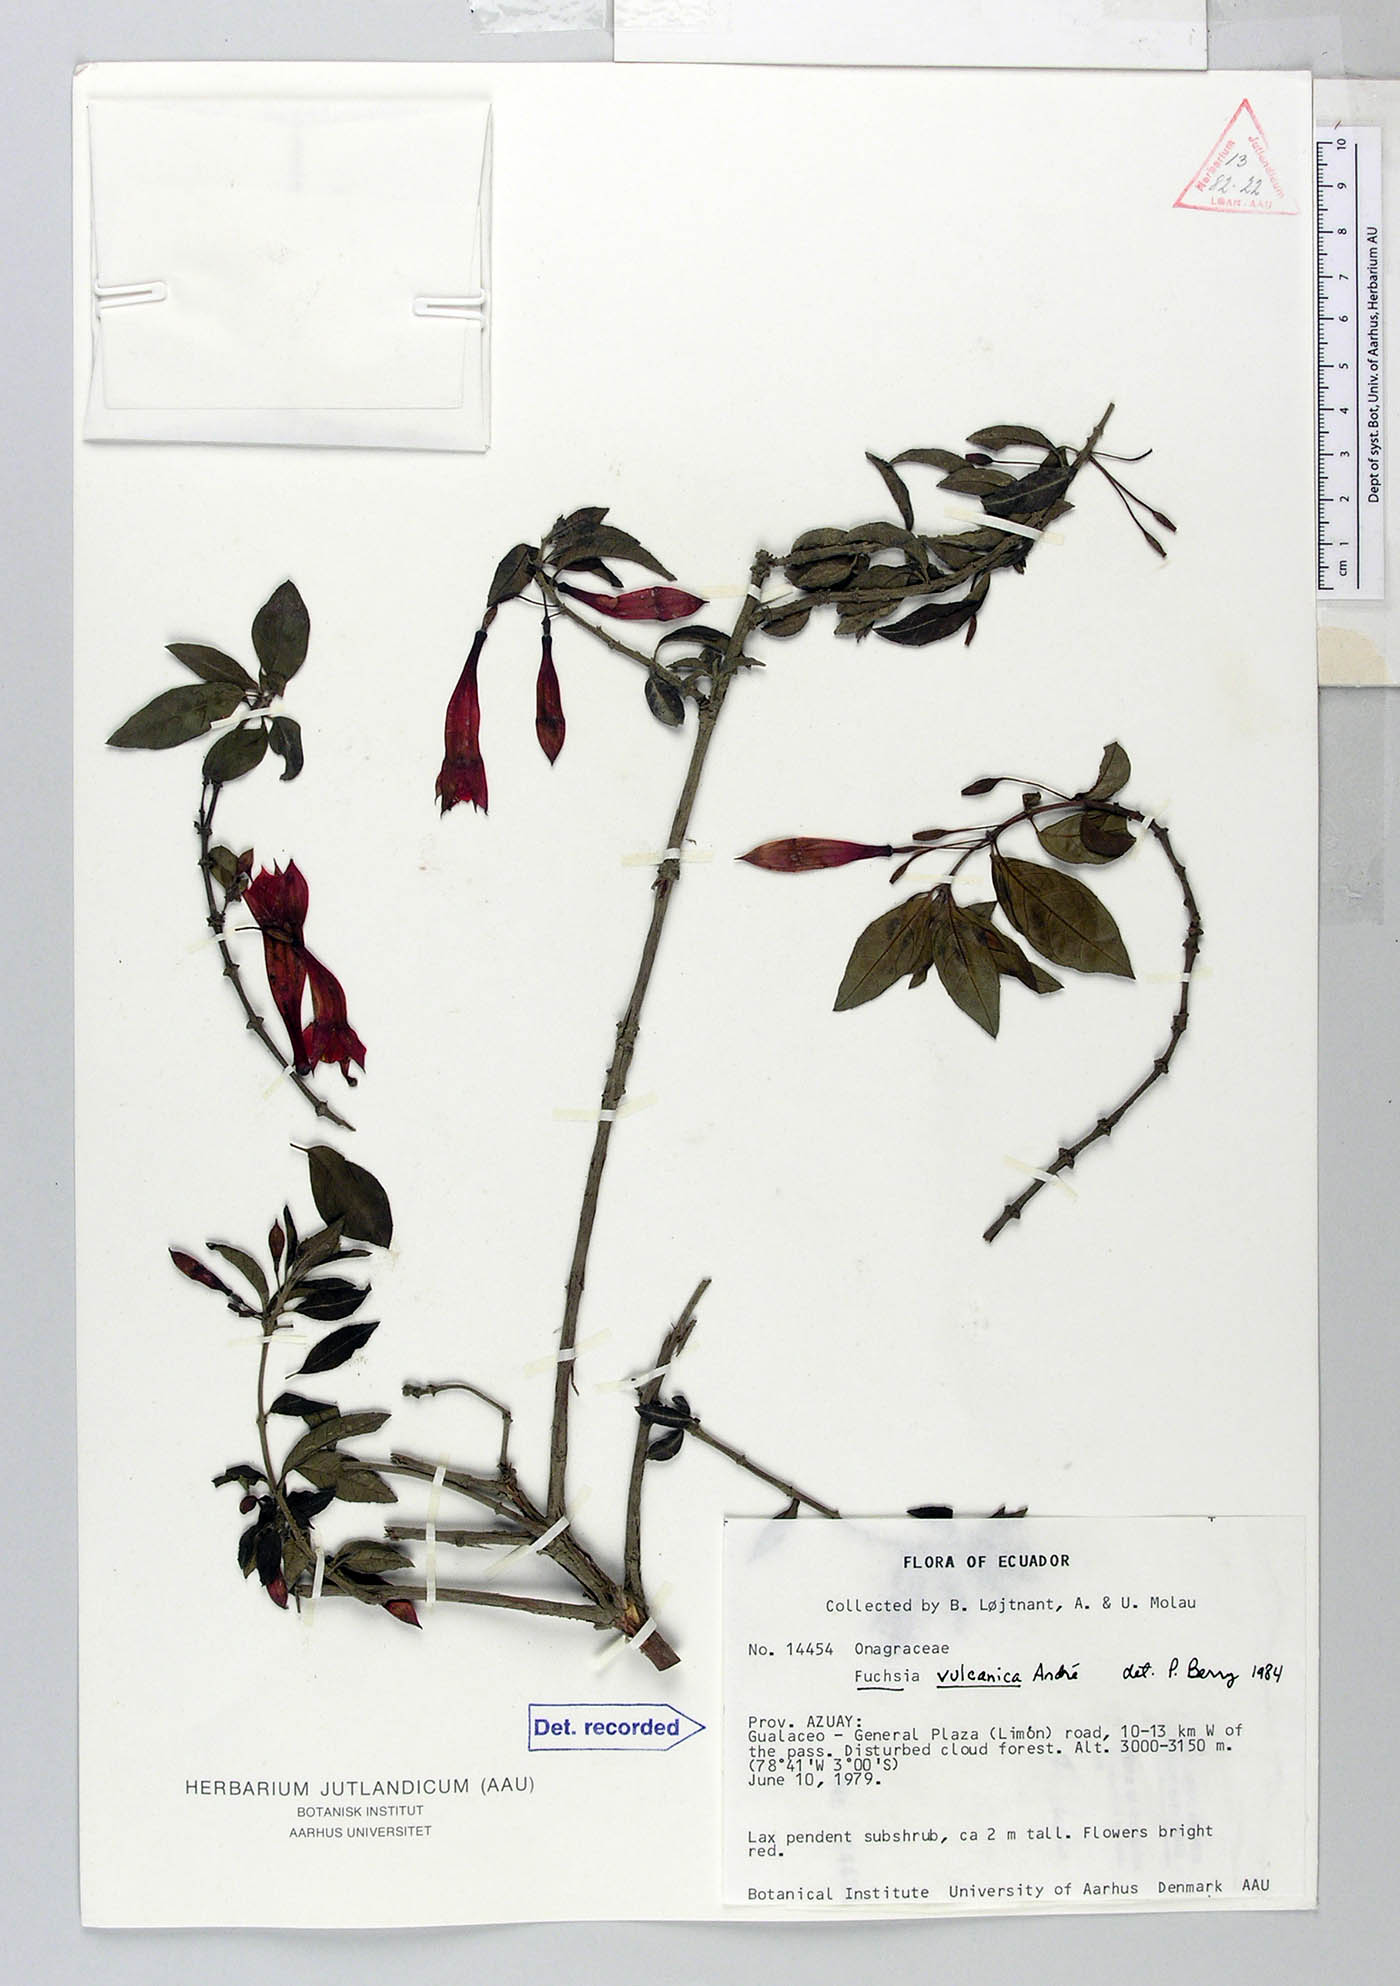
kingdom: Plantae
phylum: Tracheophyta
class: Magnoliopsida
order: Myrtales
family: Onagraceae
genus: Fuchsia
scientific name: Fuchsia vulcanica
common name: Volcan's fuchsia
